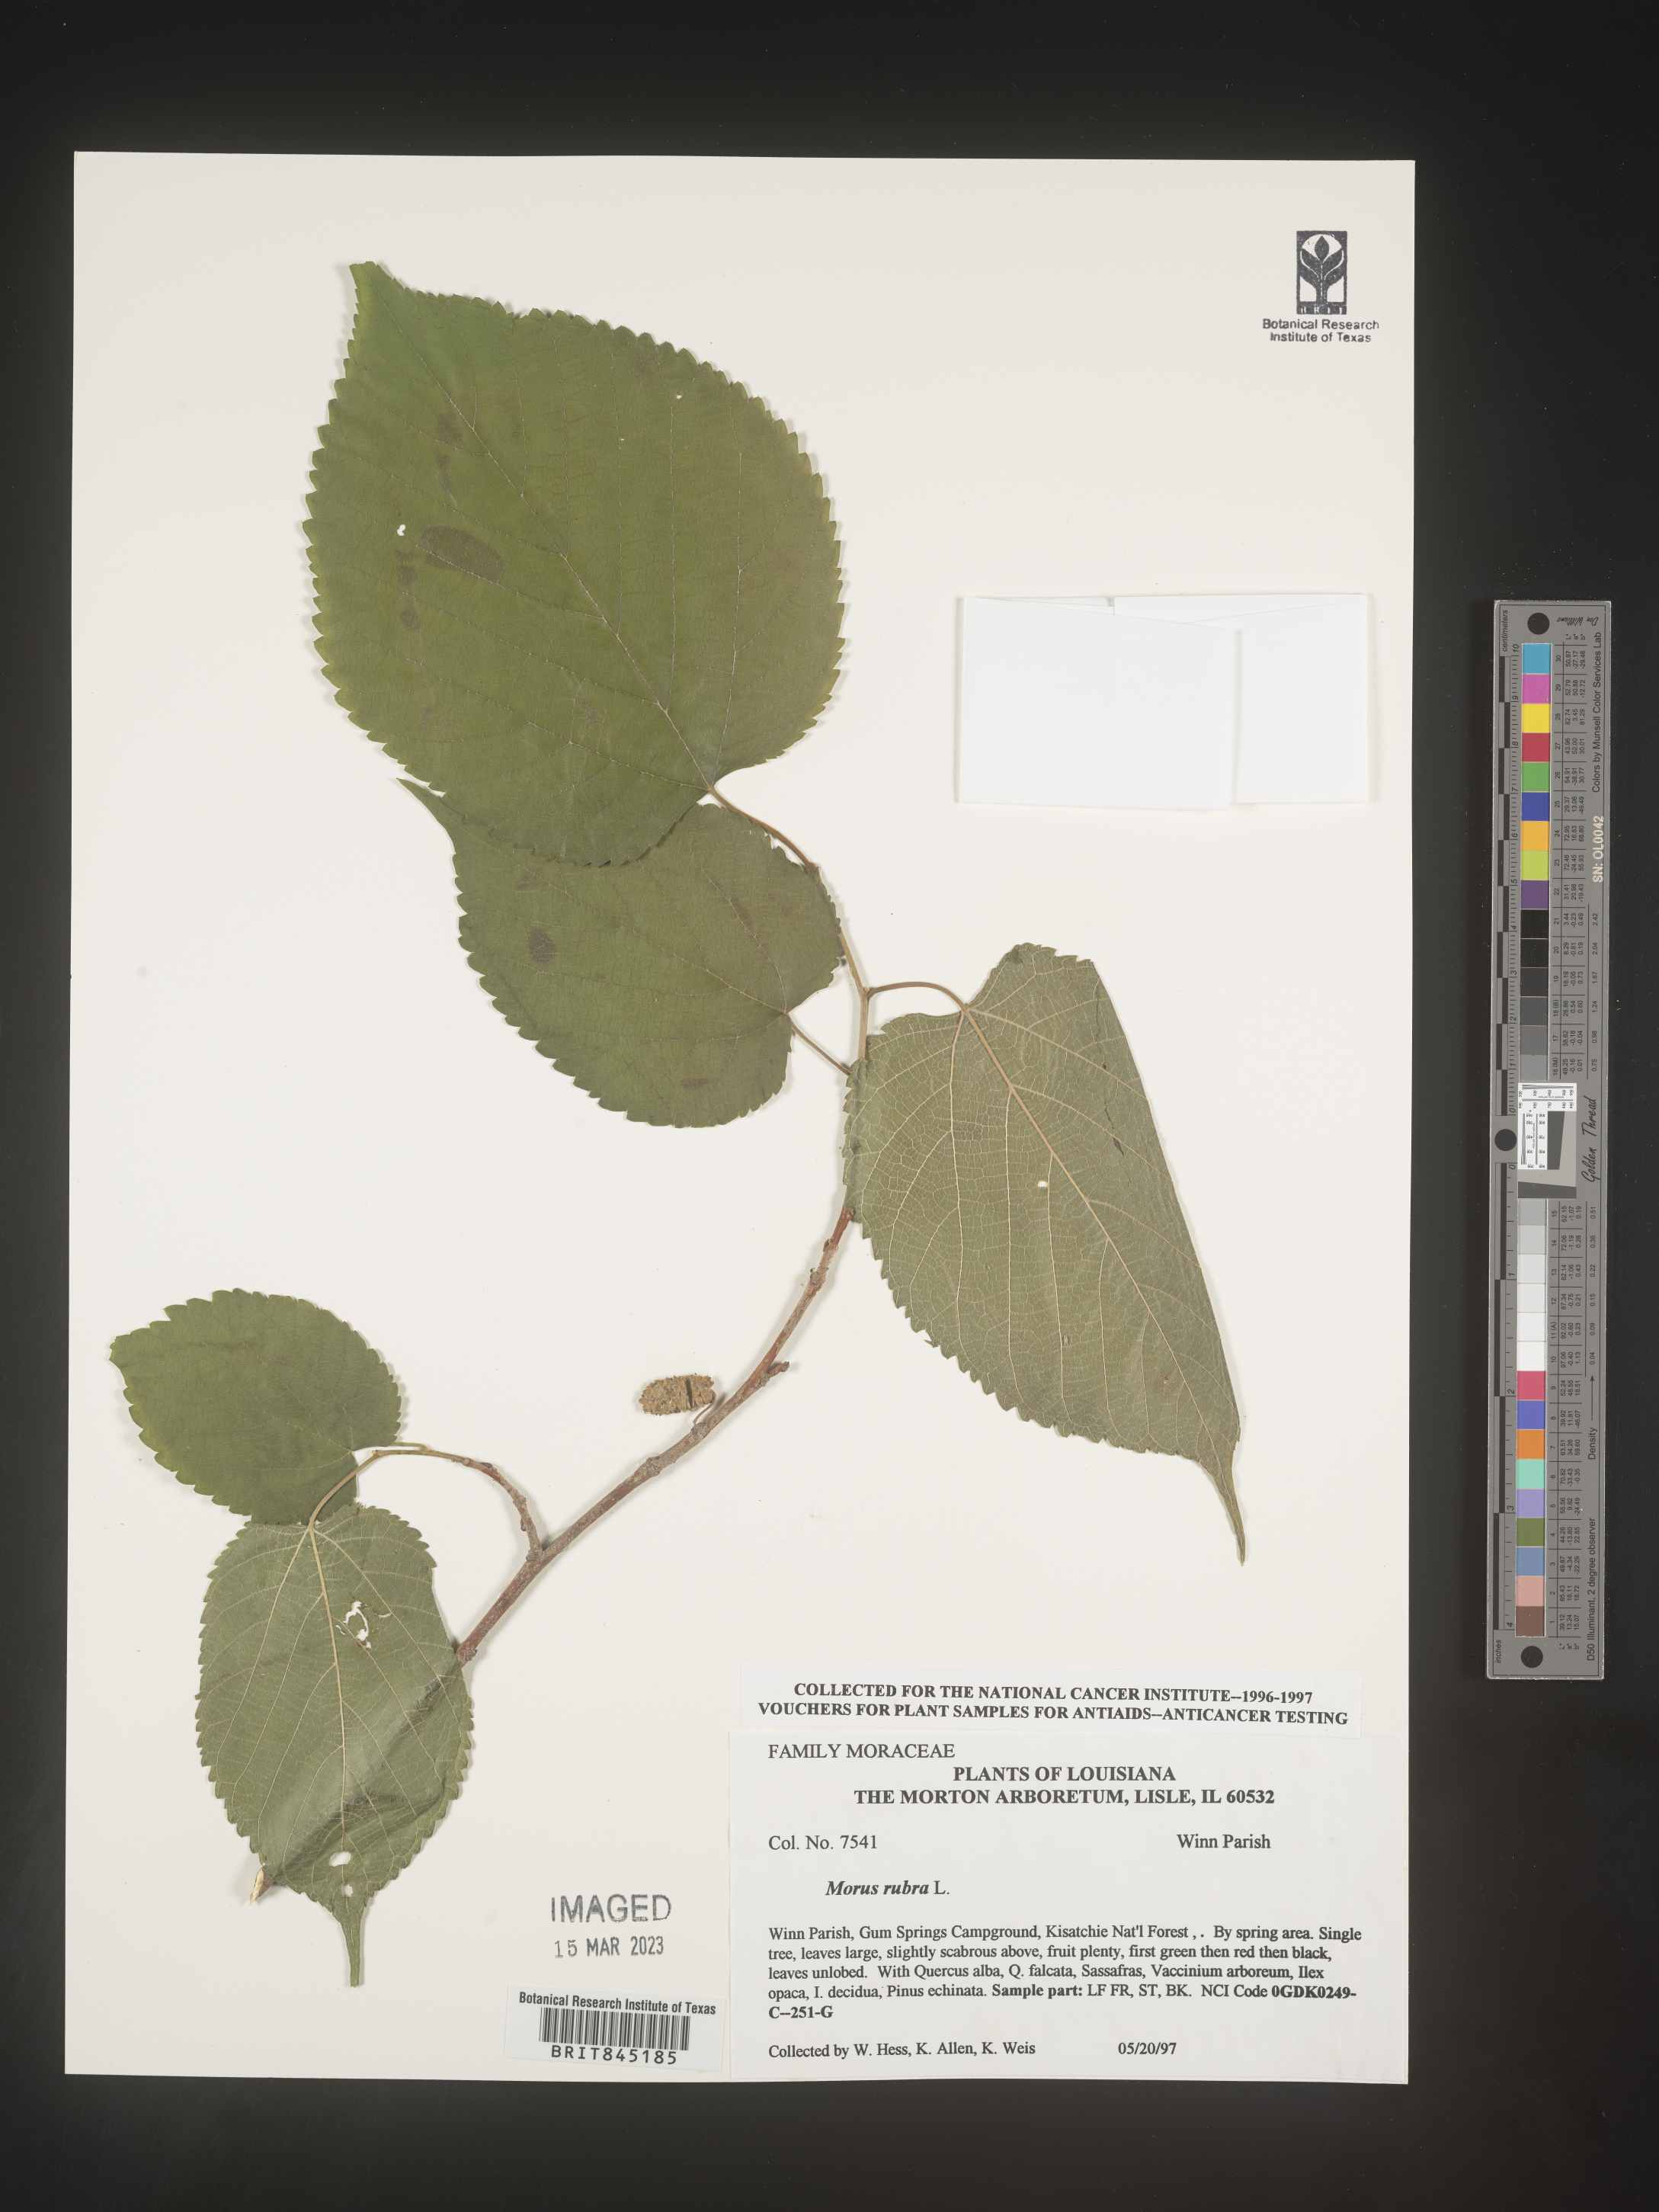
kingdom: Plantae
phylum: Tracheophyta
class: Magnoliopsida
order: Rosales
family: Moraceae
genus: Morus
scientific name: Morus rubra
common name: Red mulberry
